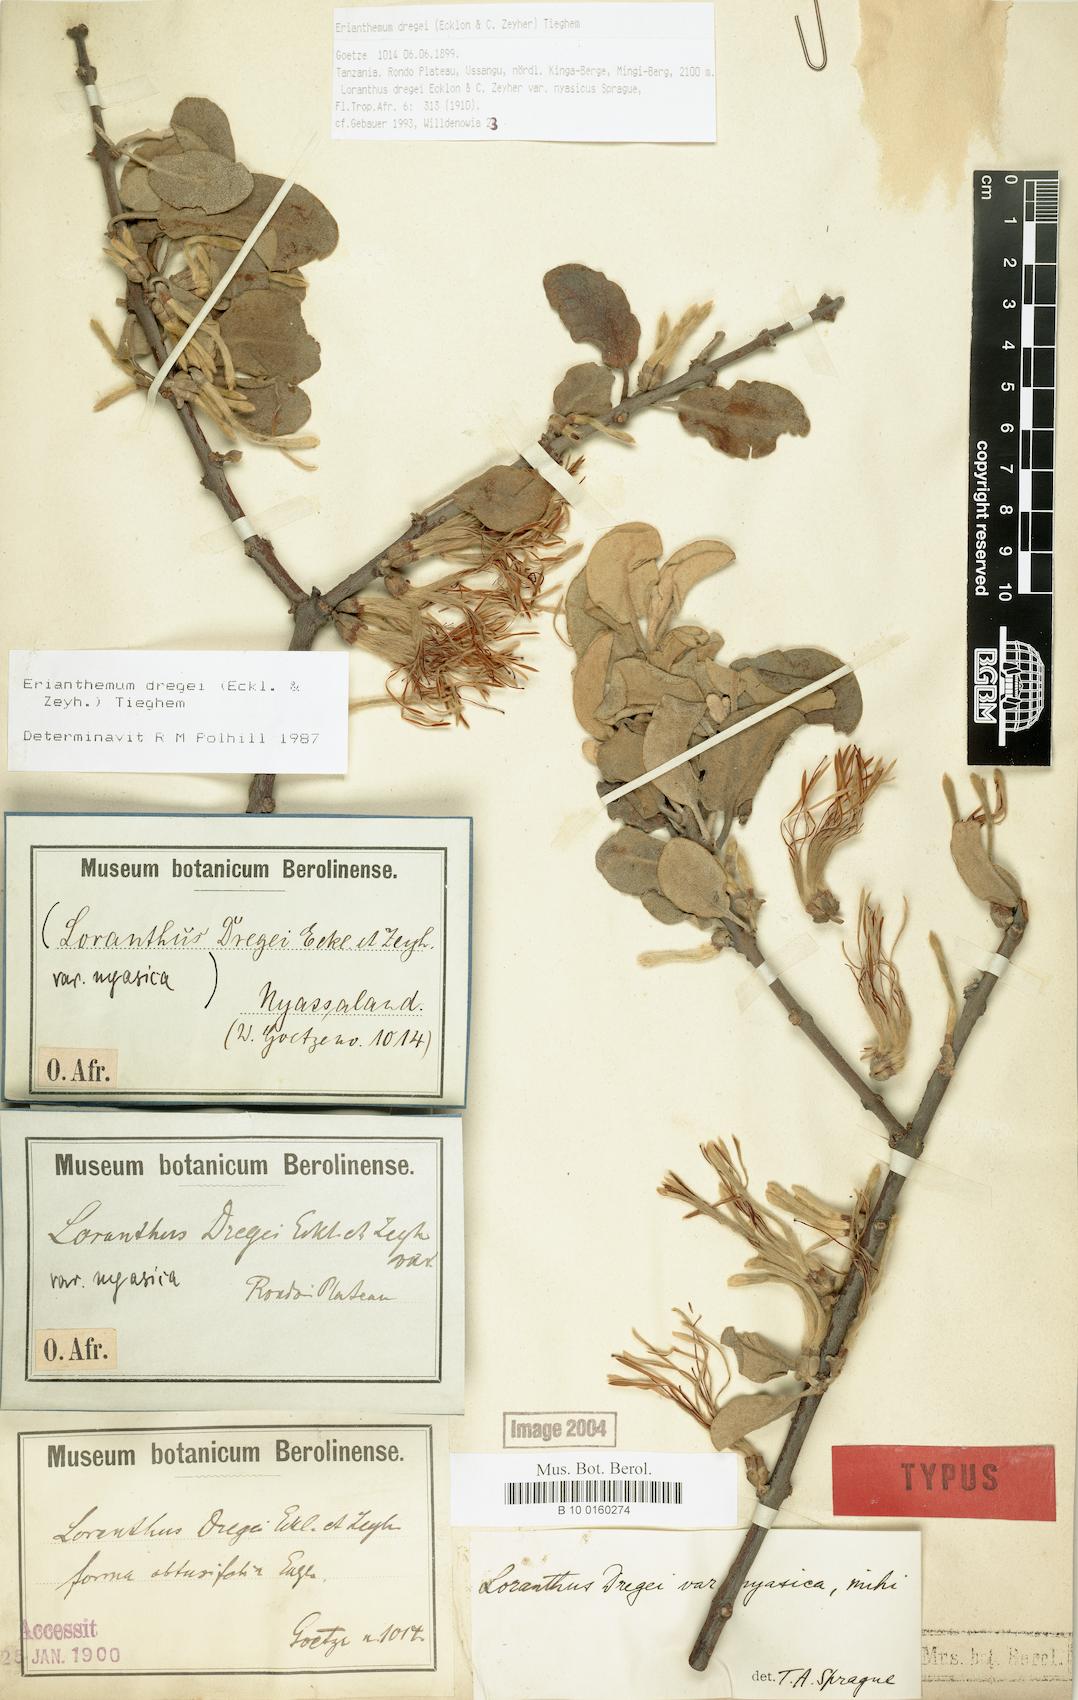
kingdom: Plantae
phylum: Tracheophyta
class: Magnoliopsida
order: Santalales
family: Loranthaceae
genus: Erianthemum
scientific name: Erianthemum dregei
